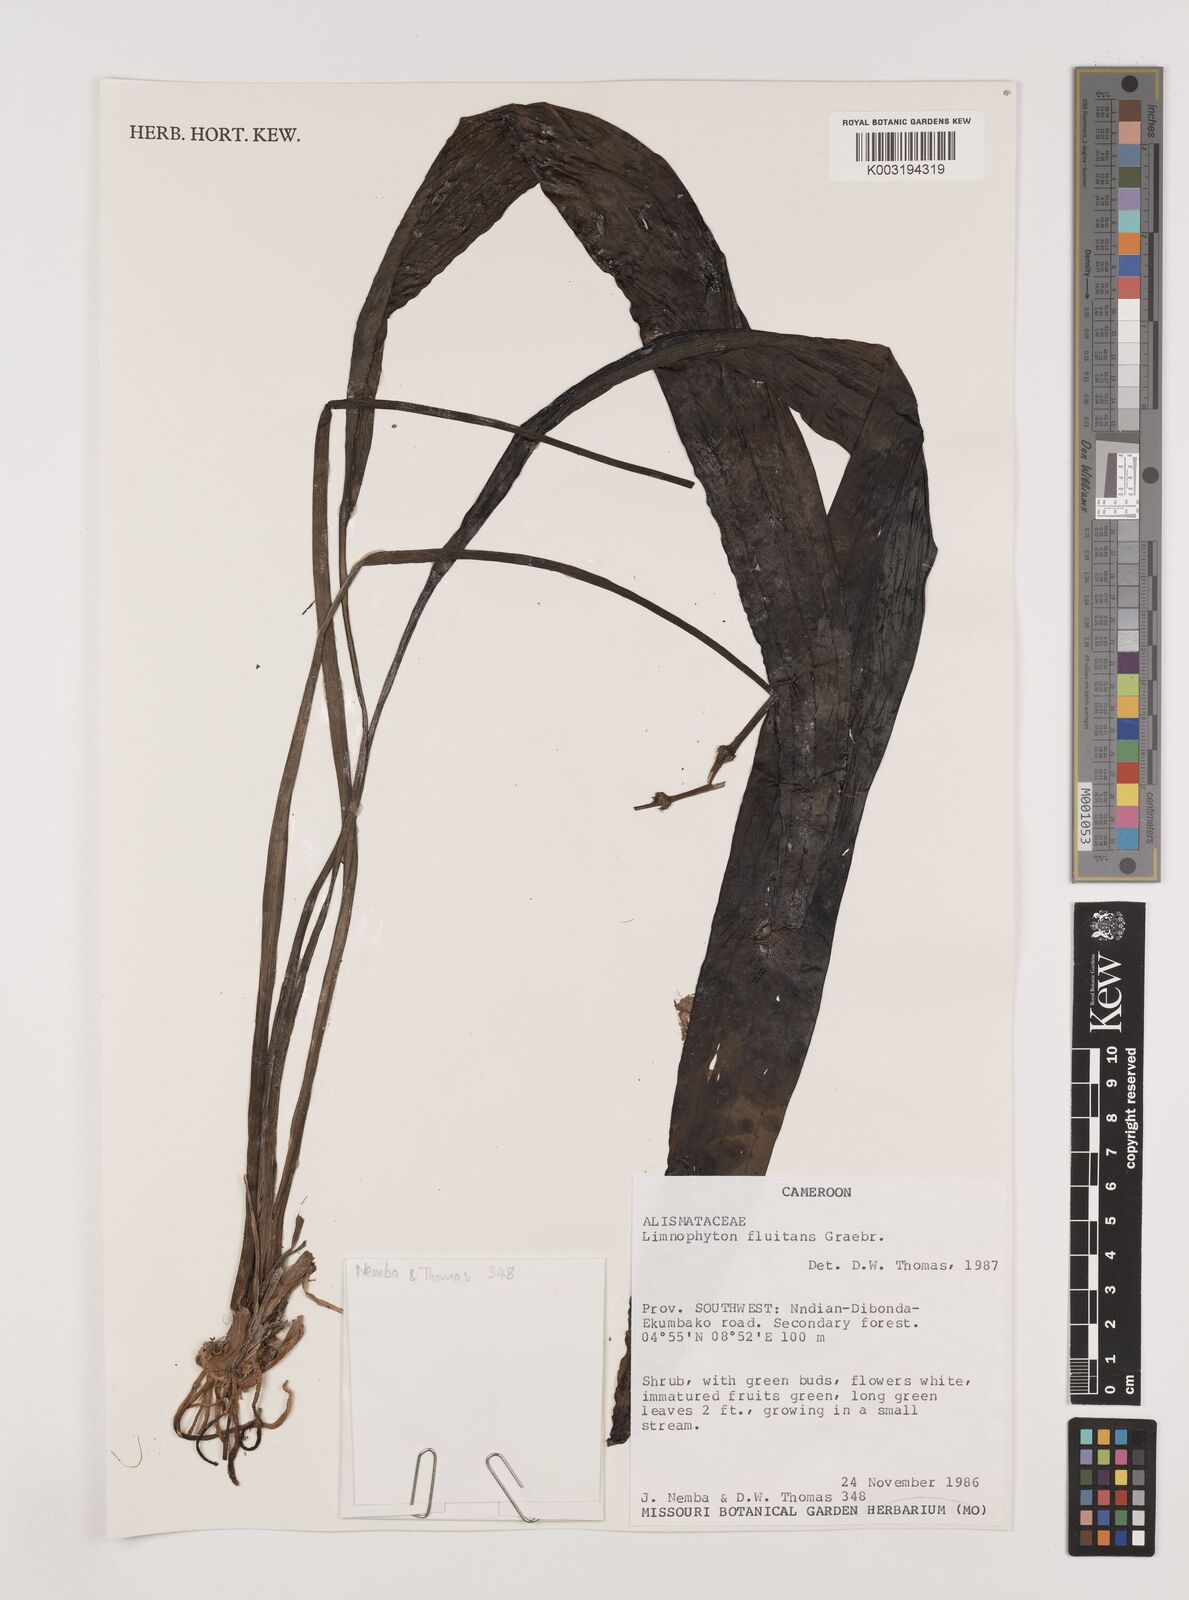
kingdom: Plantae
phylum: Tracheophyta
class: Liliopsida
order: Alismatales
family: Alismataceae
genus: Limnophyton
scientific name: Limnophyton fluitans
